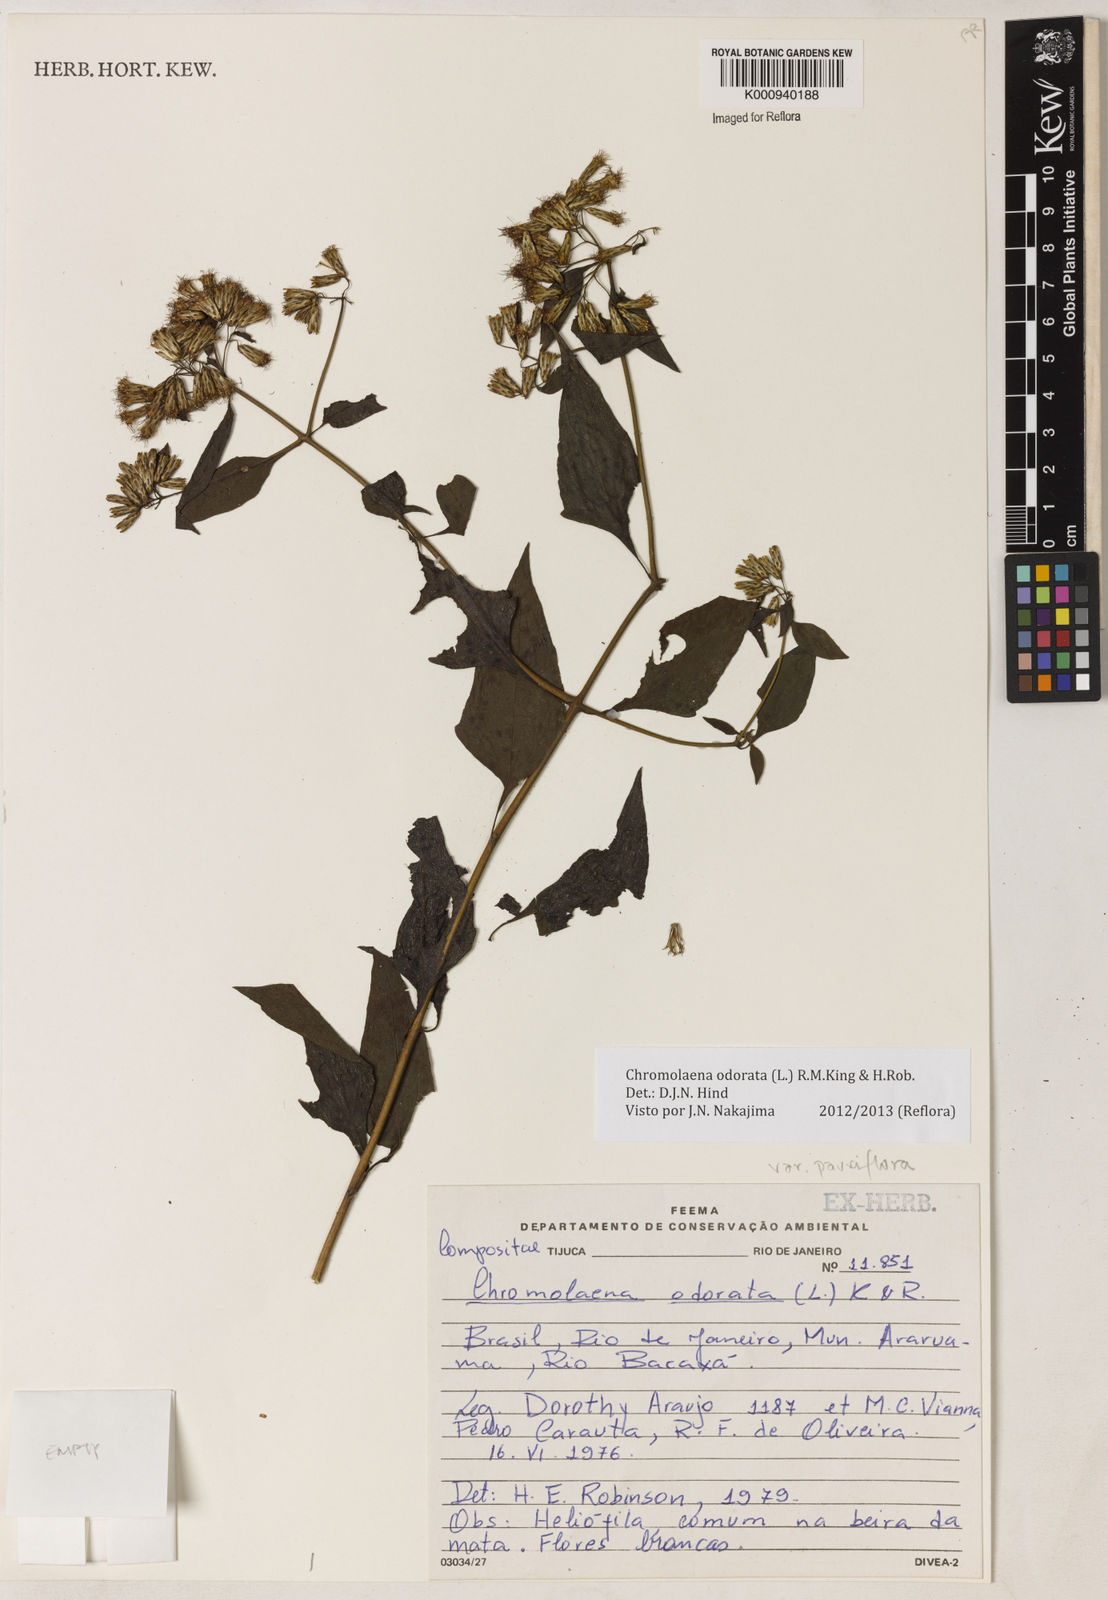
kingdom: Plantae
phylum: Tracheophyta
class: Magnoliopsida
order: Asterales
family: Asteraceae
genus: Chromolaena
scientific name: Chromolaena odorata
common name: Siamweed
